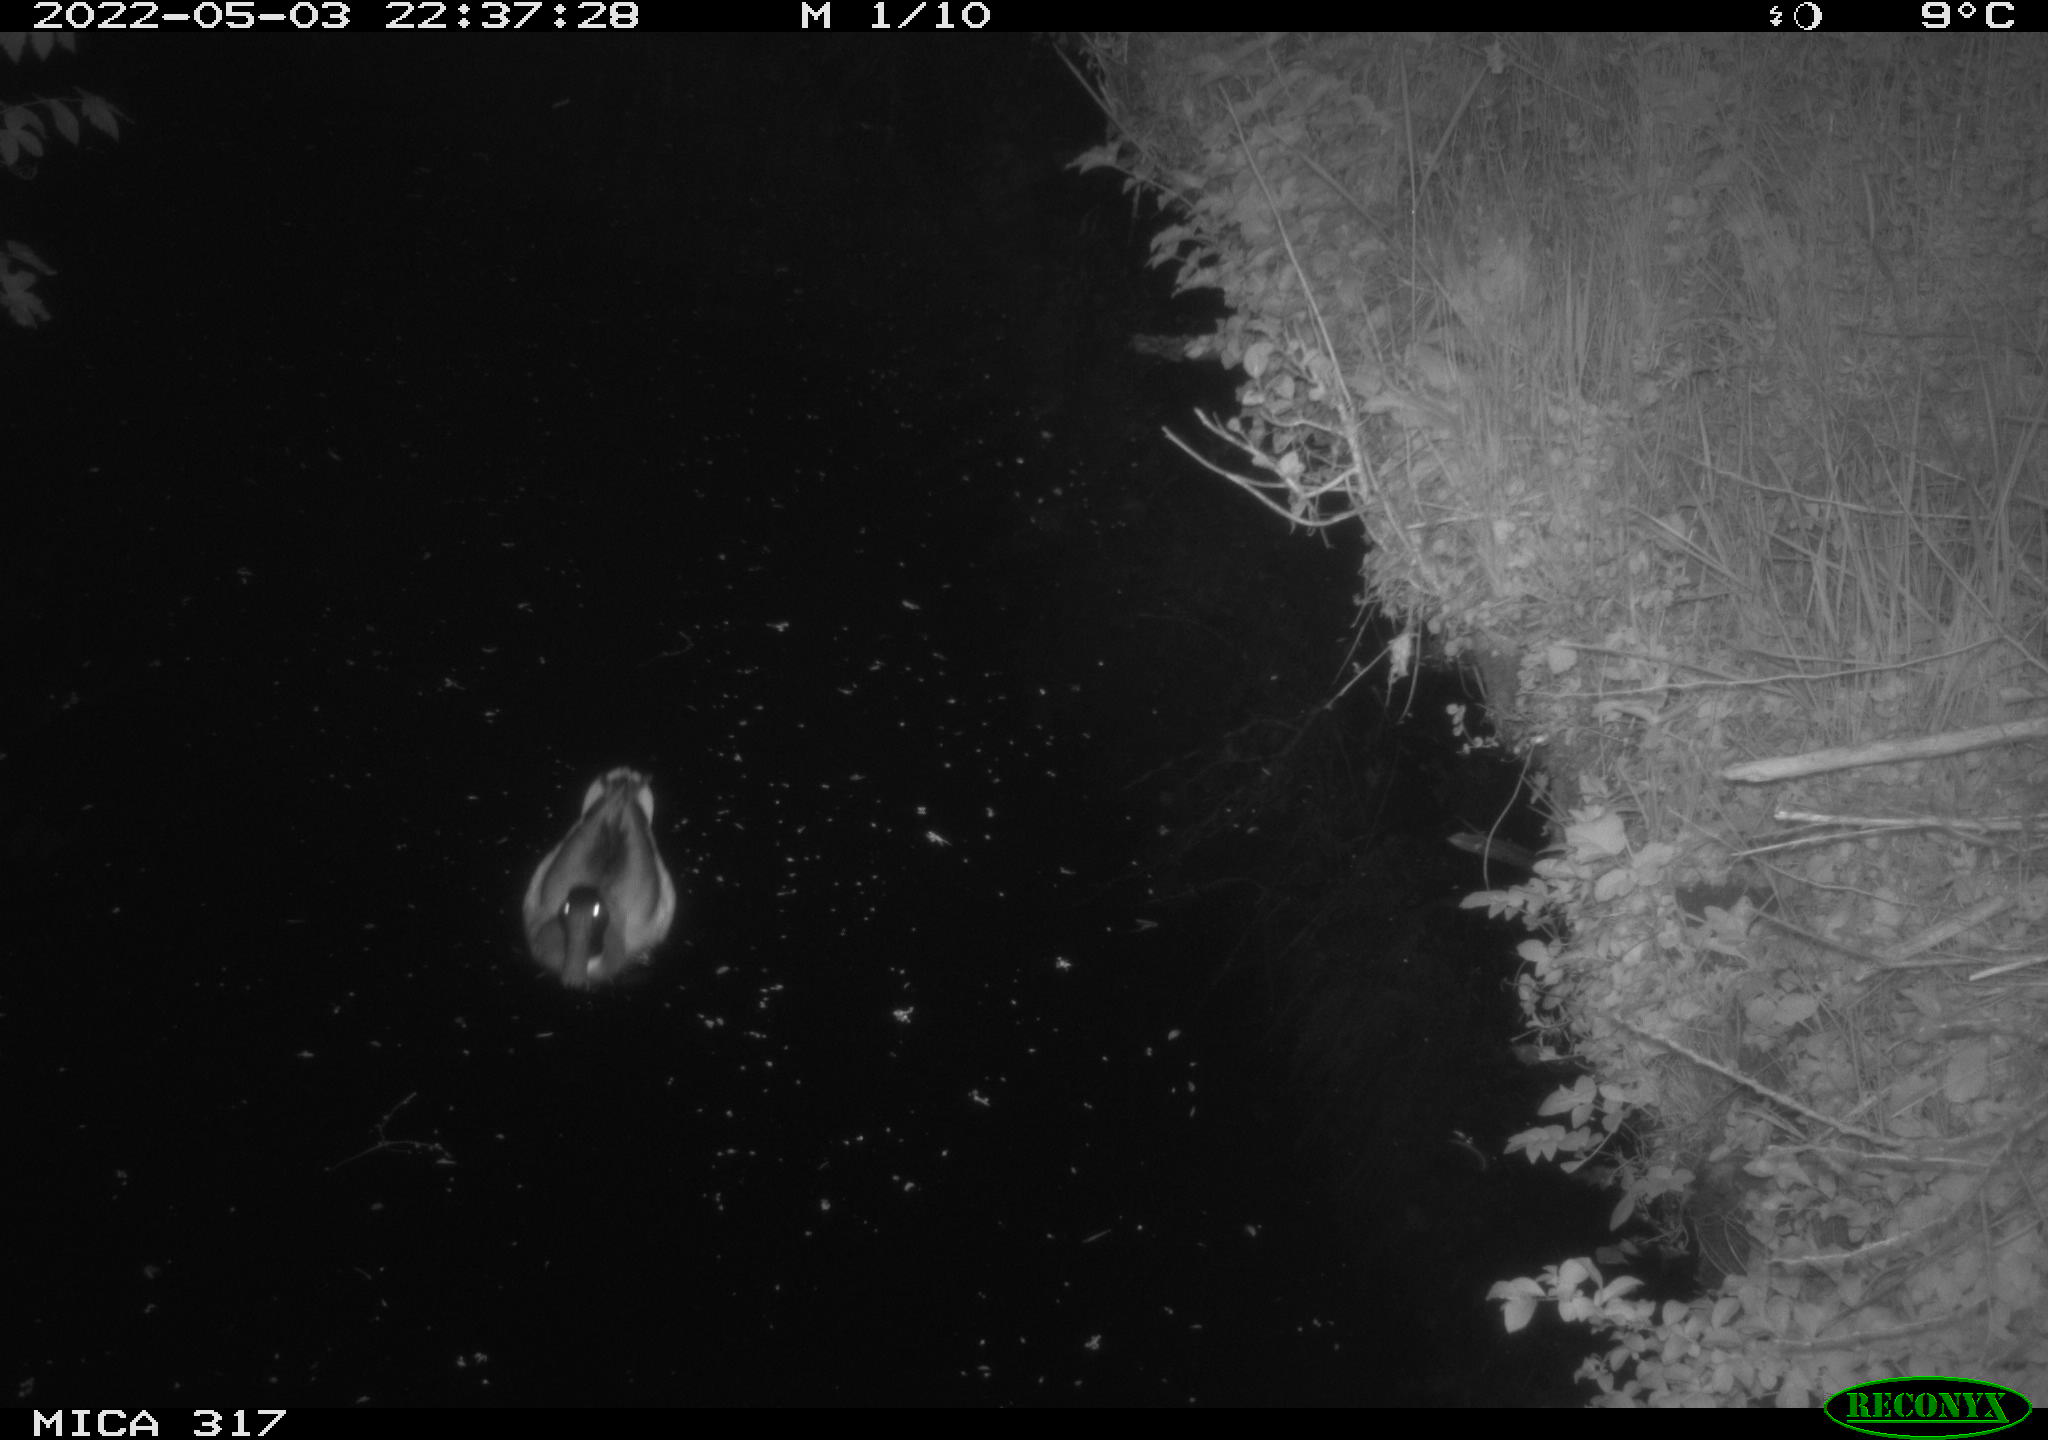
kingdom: Animalia
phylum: Chordata
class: Aves
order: Anseriformes
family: Anatidae
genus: Anas
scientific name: Anas platyrhynchos
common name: Mallard
